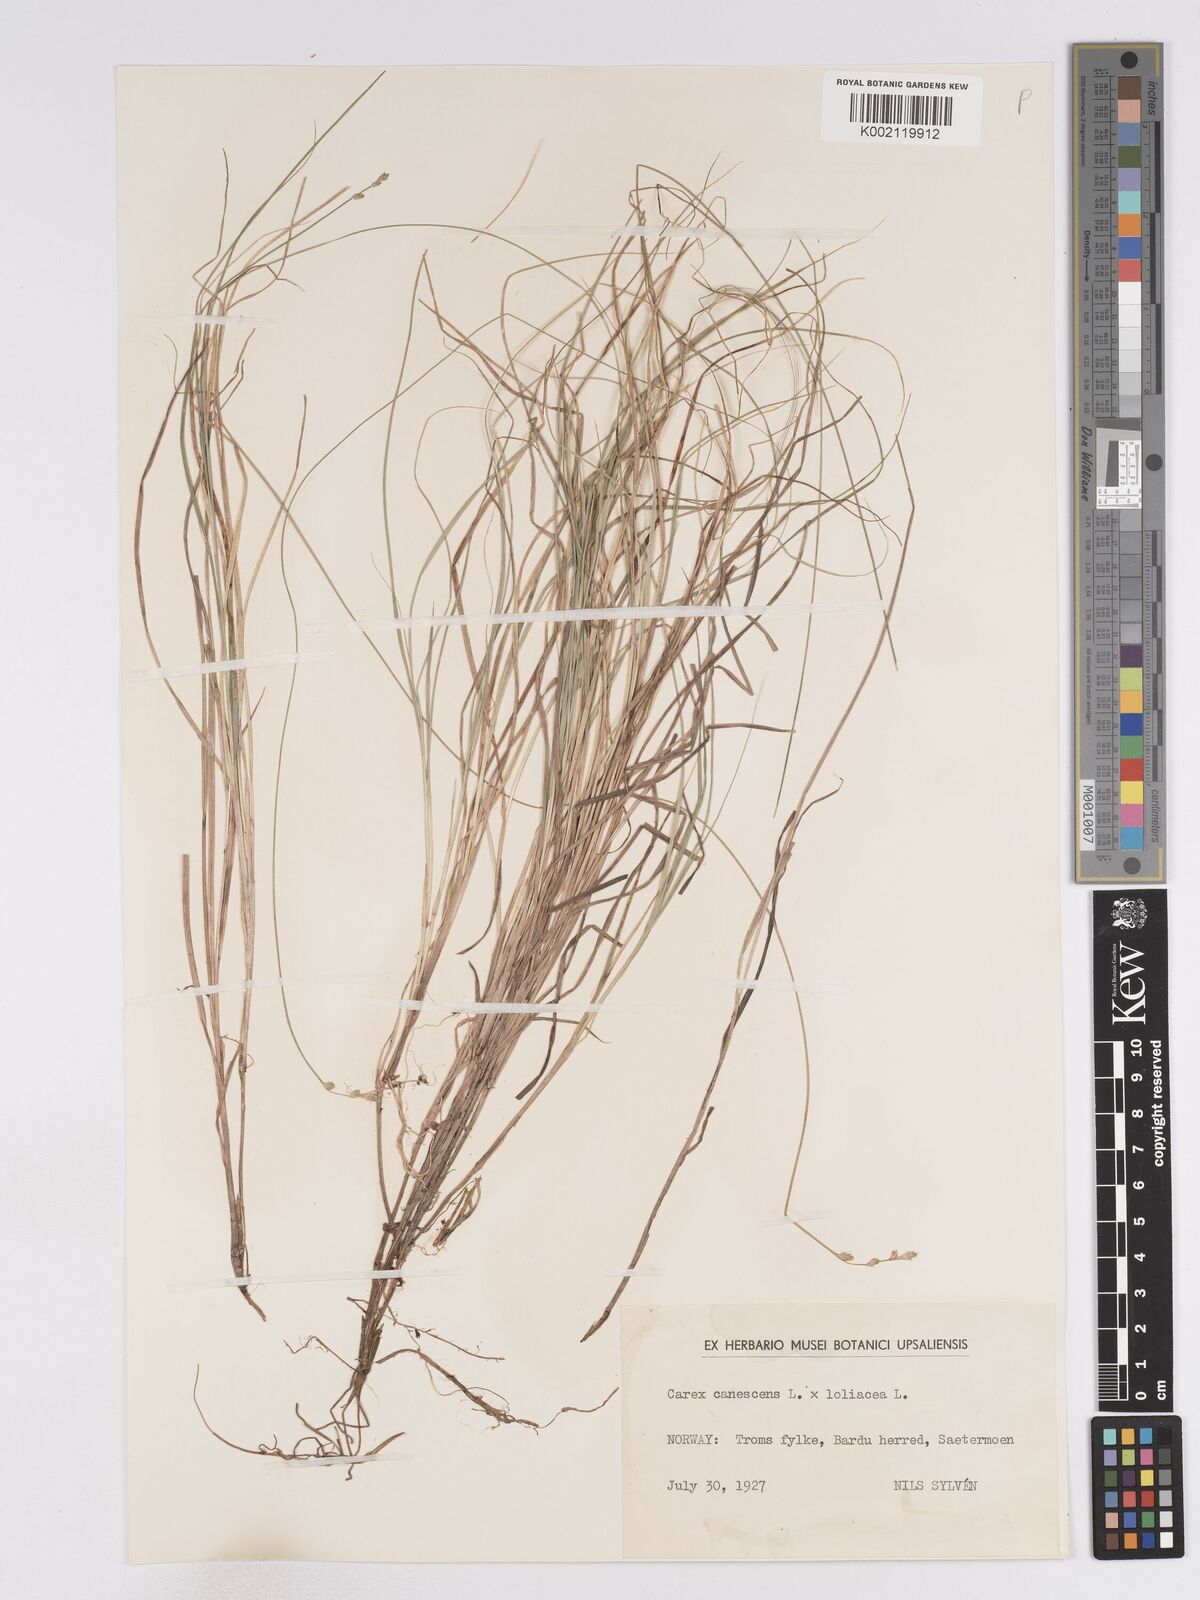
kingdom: Plantae
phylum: Tracheophyta
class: Liliopsida
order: Poales
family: Cyperaceae
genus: Carex
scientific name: Carex curta
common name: White sedge
